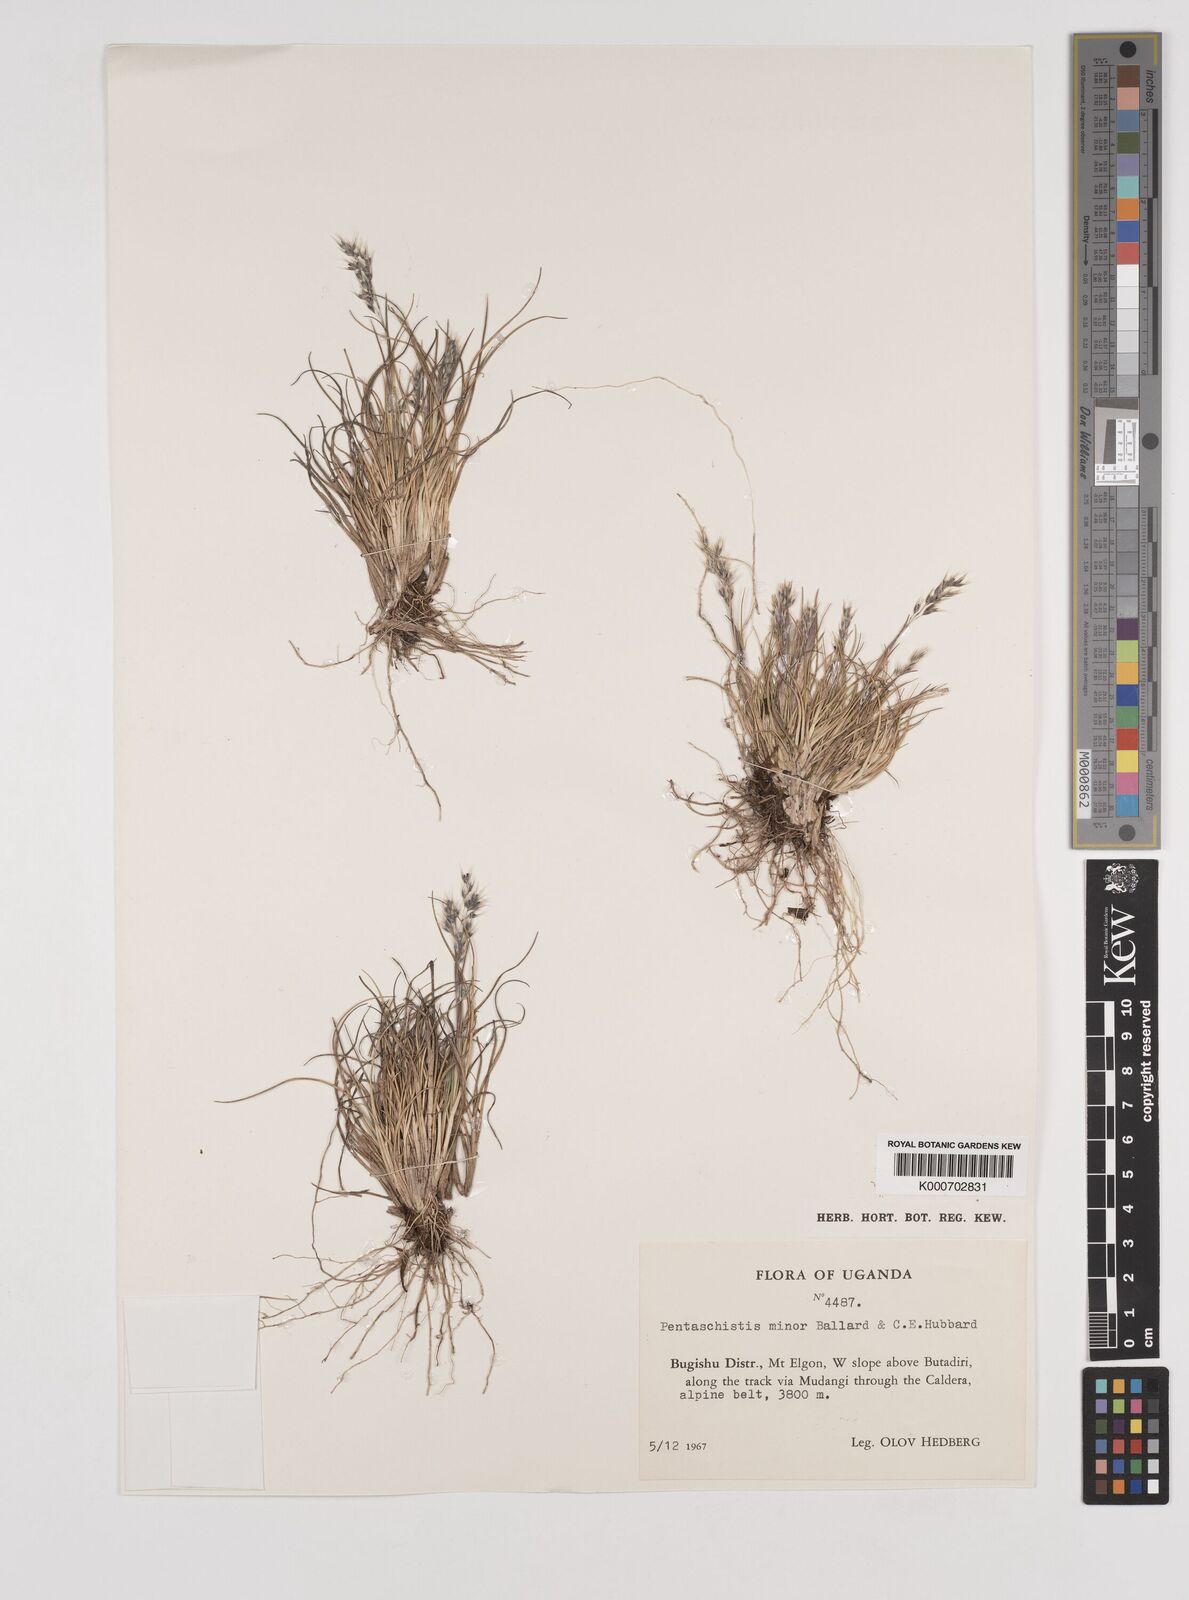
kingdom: Plantae
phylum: Tracheophyta
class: Liliopsida
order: Poales
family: Poaceae
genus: Pentameris
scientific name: Pentameris minor
